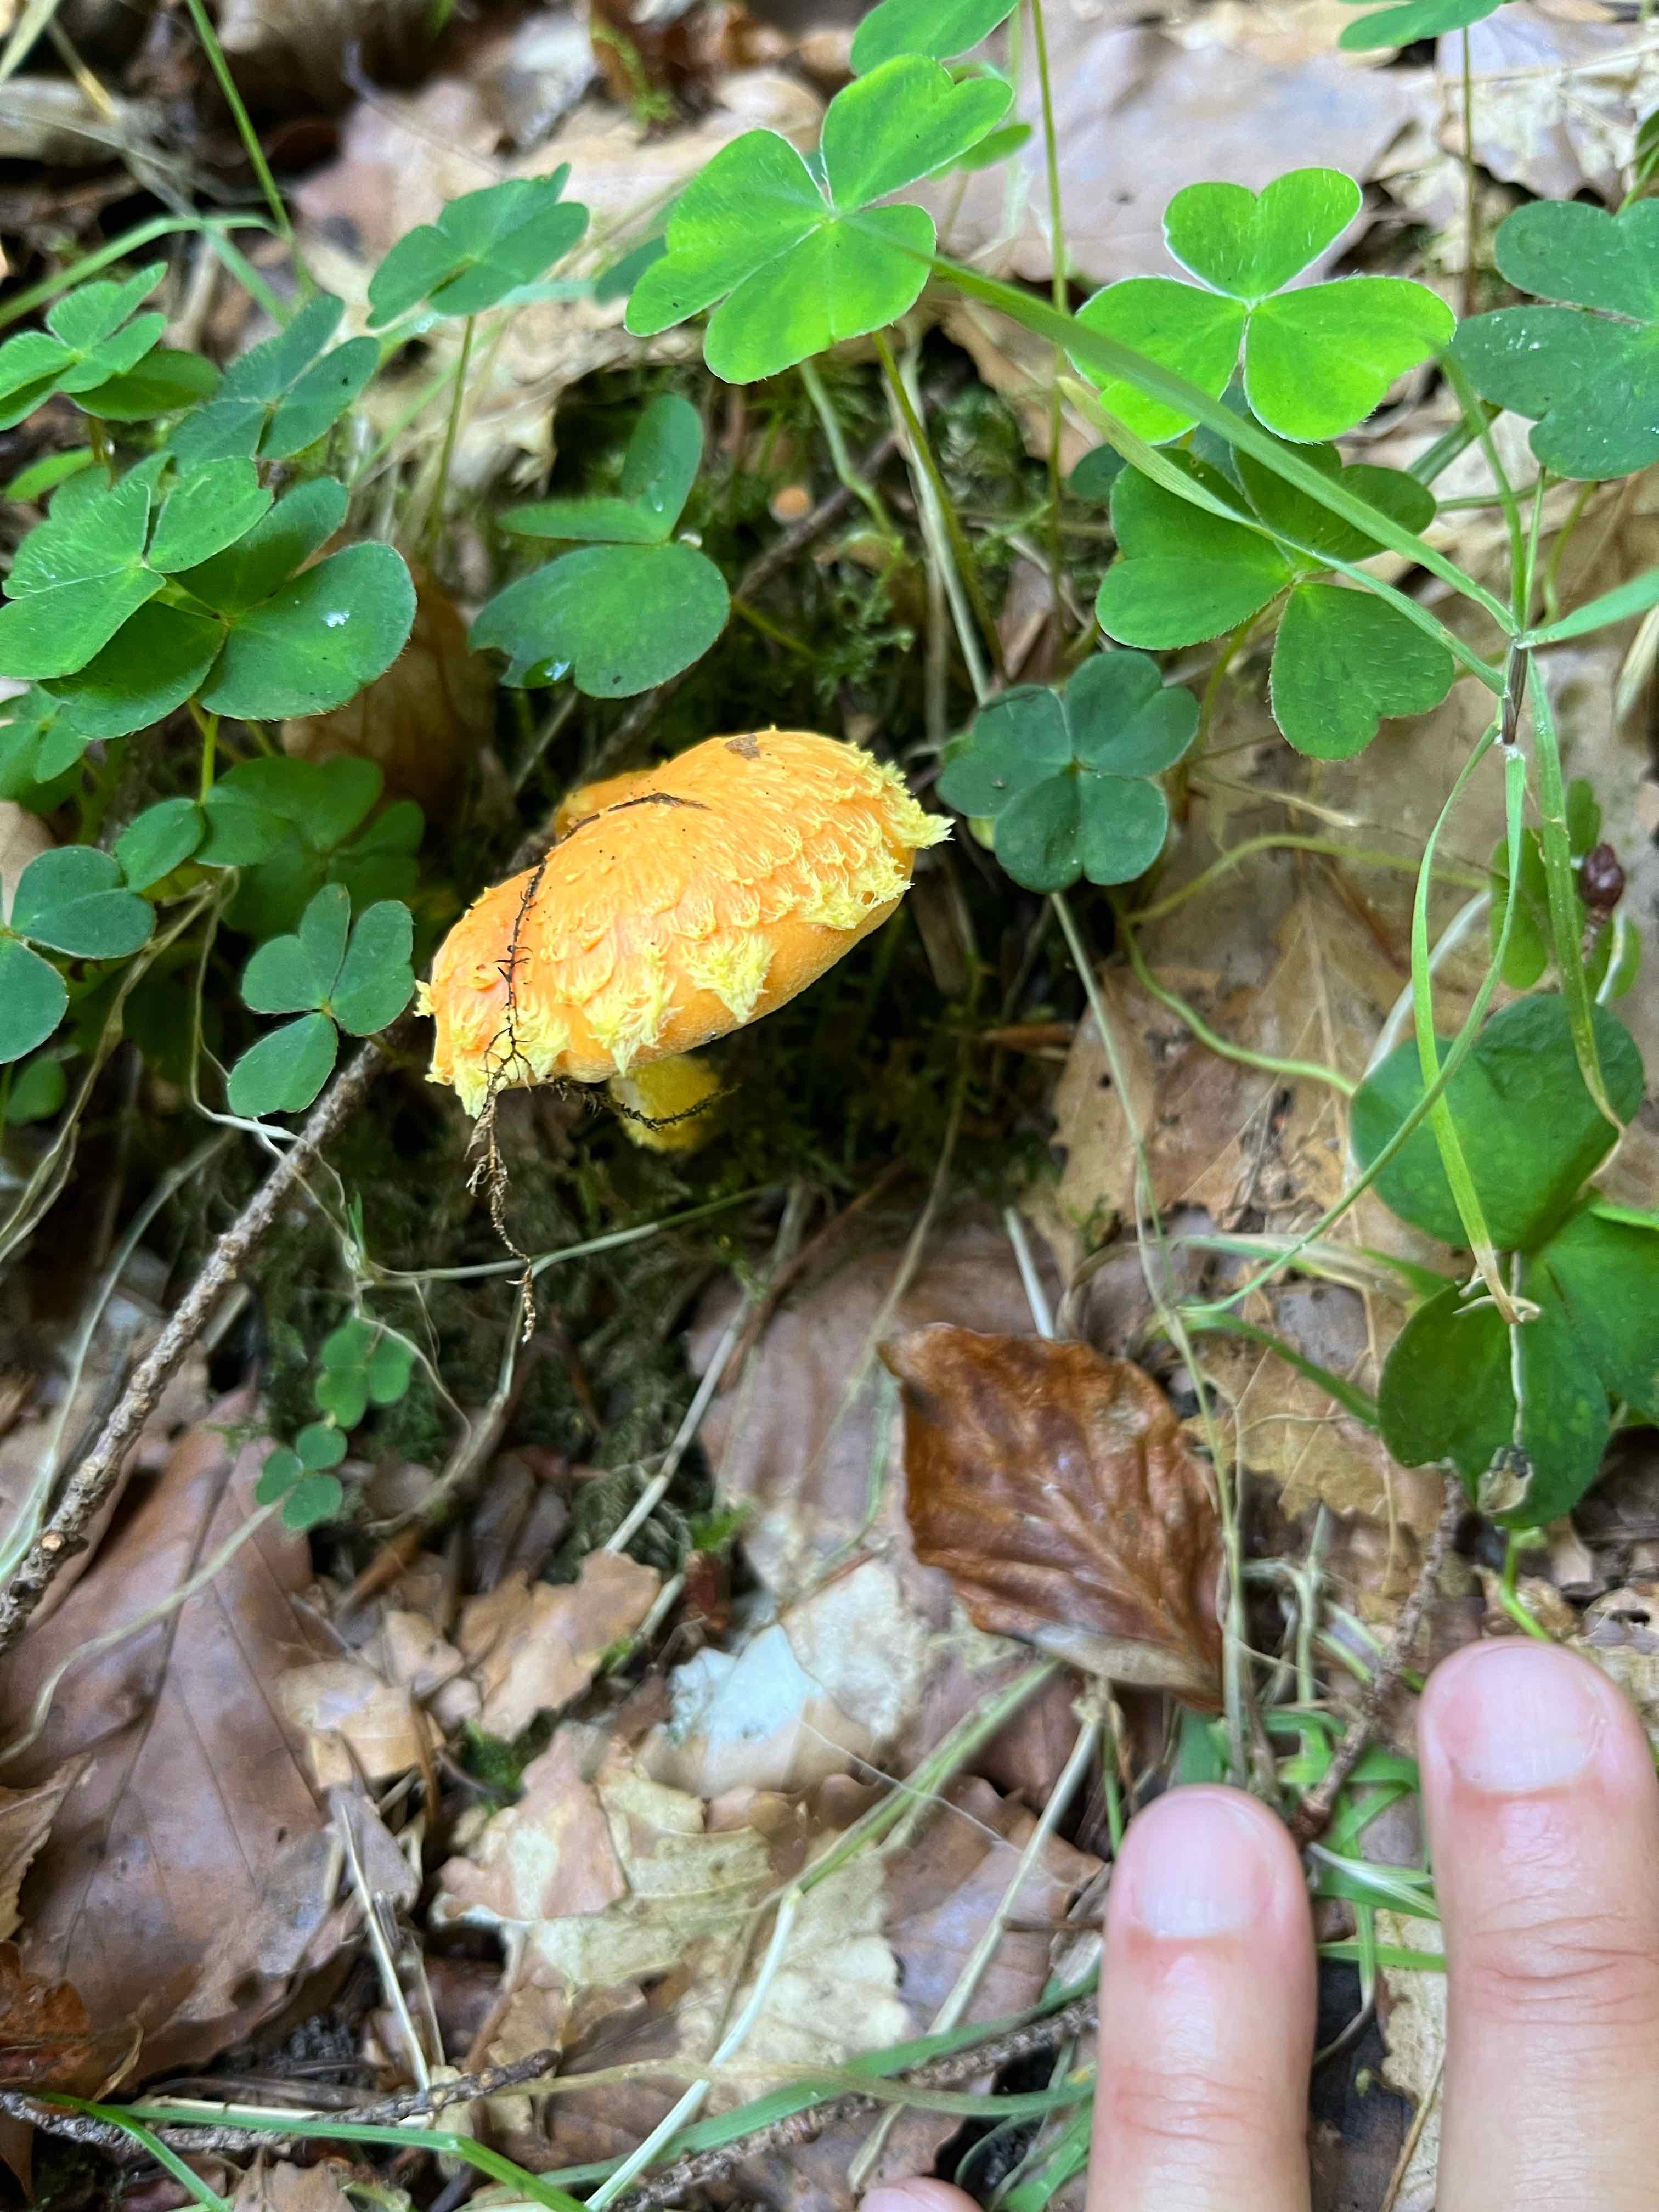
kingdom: Fungi
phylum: Basidiomycota
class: Agaricomycetes
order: Agaricales
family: Strophariaceae
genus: Pholiota
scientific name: Pholiota flammans
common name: flamme-skælhat
